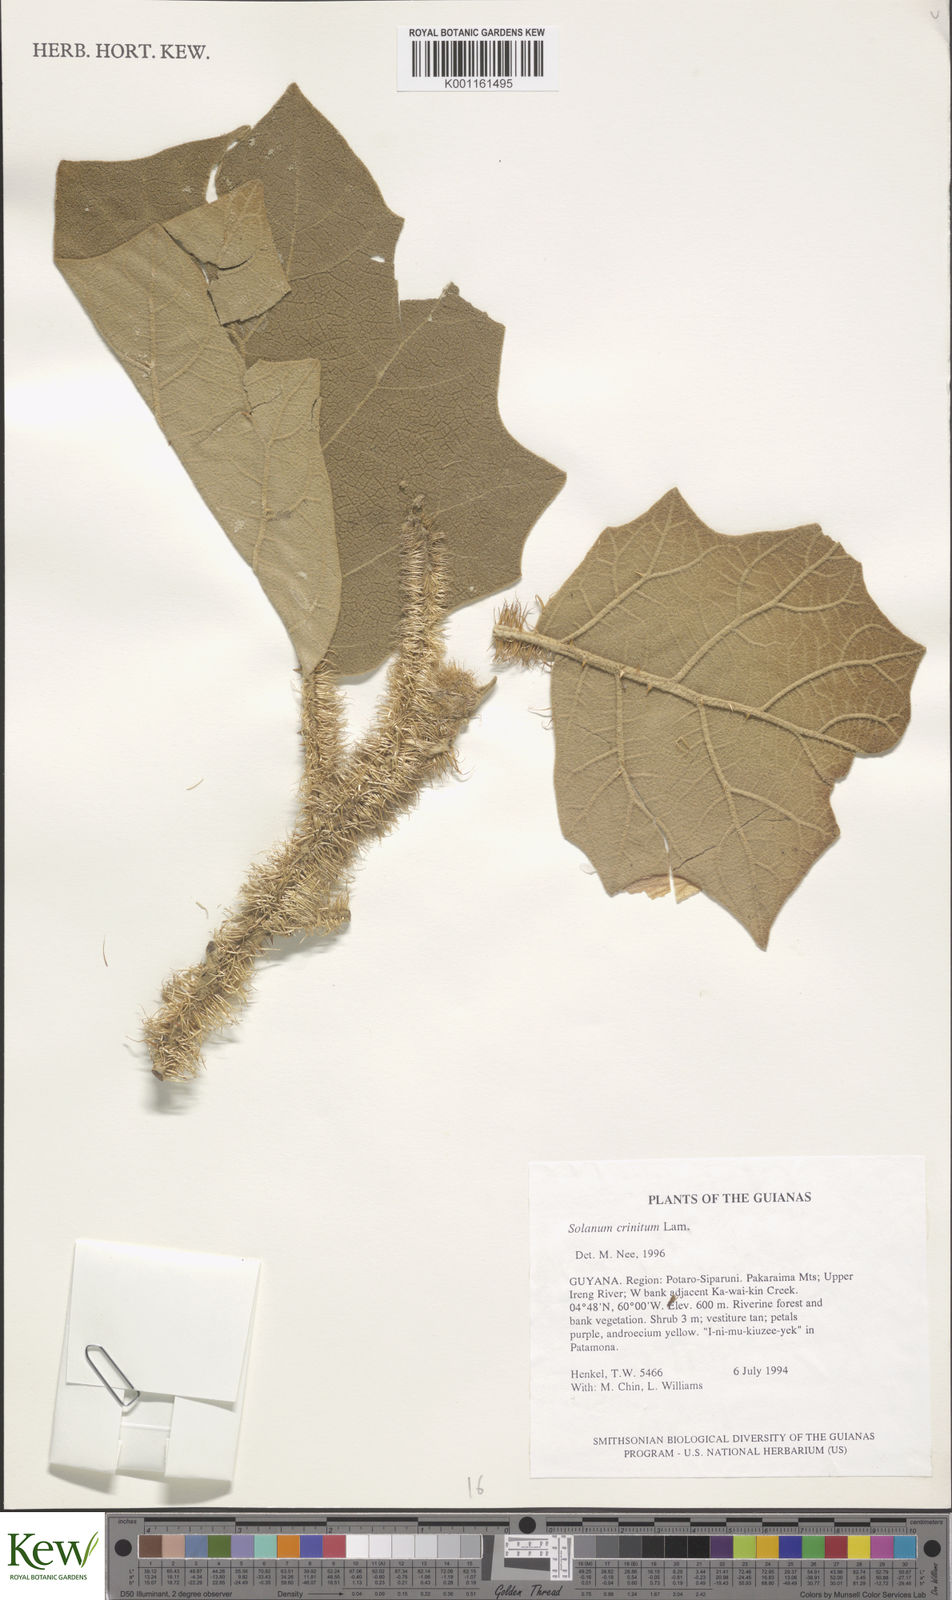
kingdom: Plantae
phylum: Tracheophyta
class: Magnoliopsida
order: Solanales
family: Solanaceae
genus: Solanum
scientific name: Solanum crinitum
